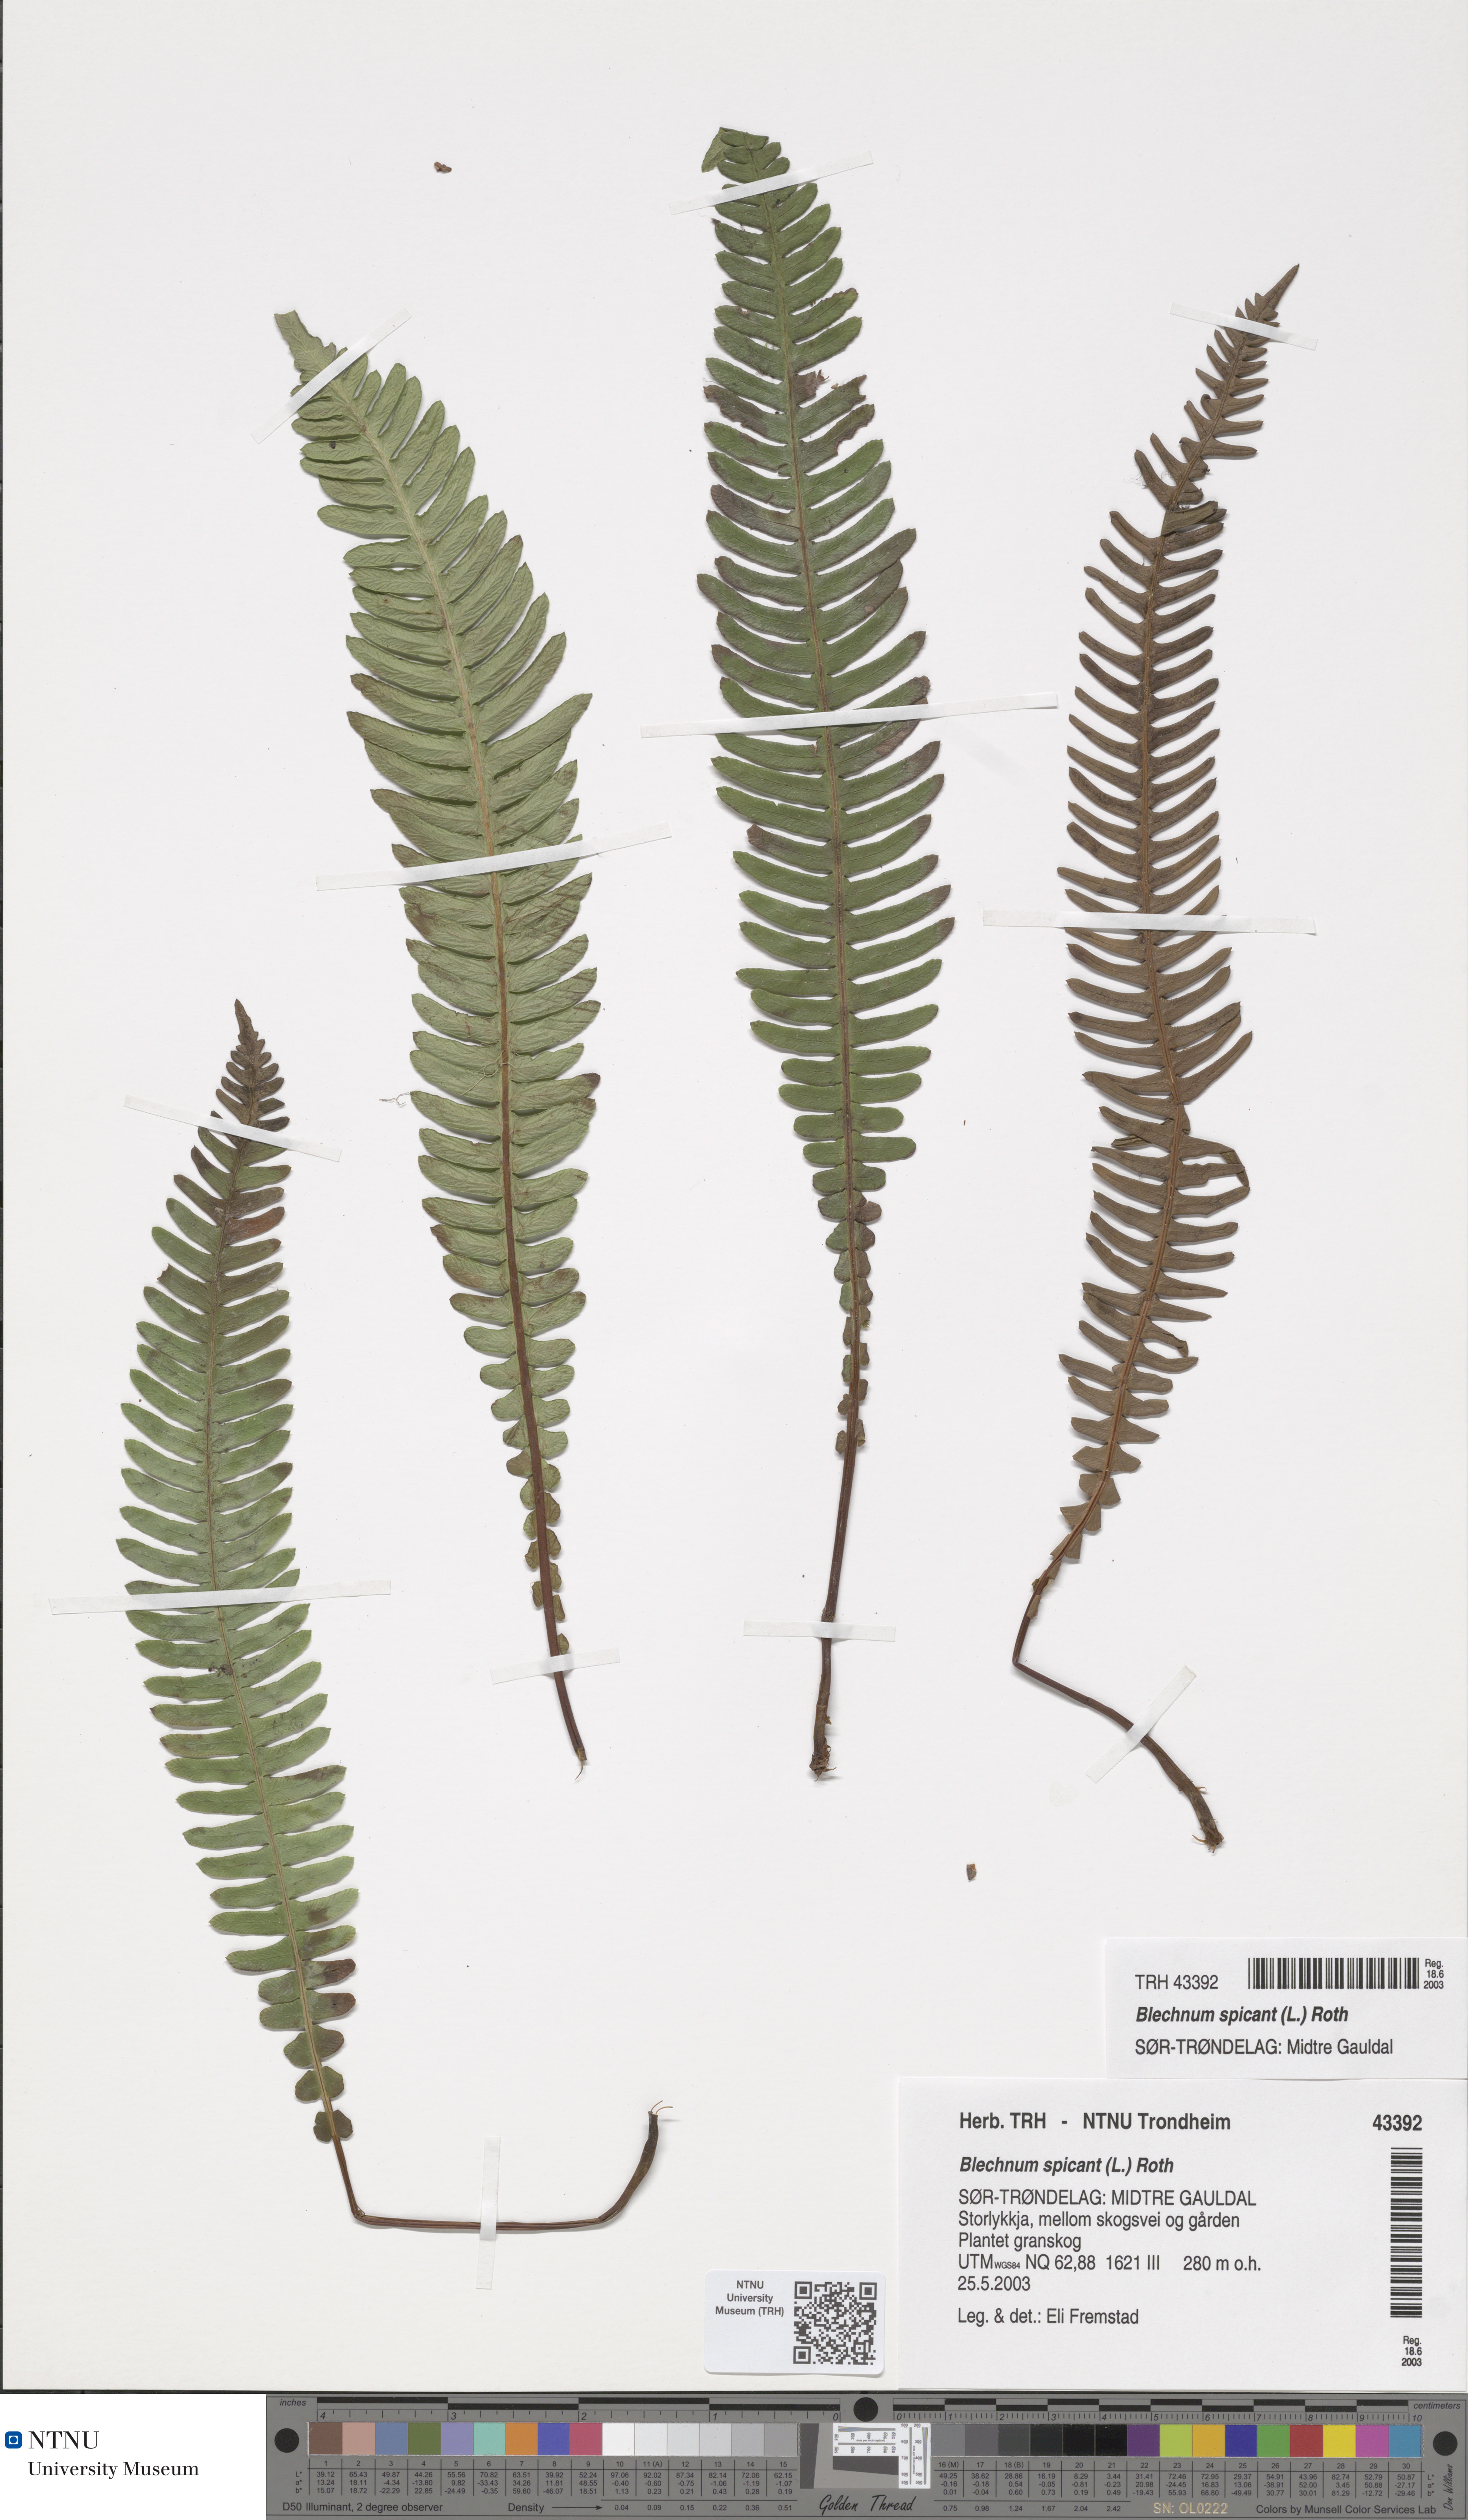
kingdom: Plantae
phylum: Tracheophyta
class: Polypodiopsida
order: Polypodiales
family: Blechnaceae
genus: Struthiopteris
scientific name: Struthiopteris spicant
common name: Deer fern
